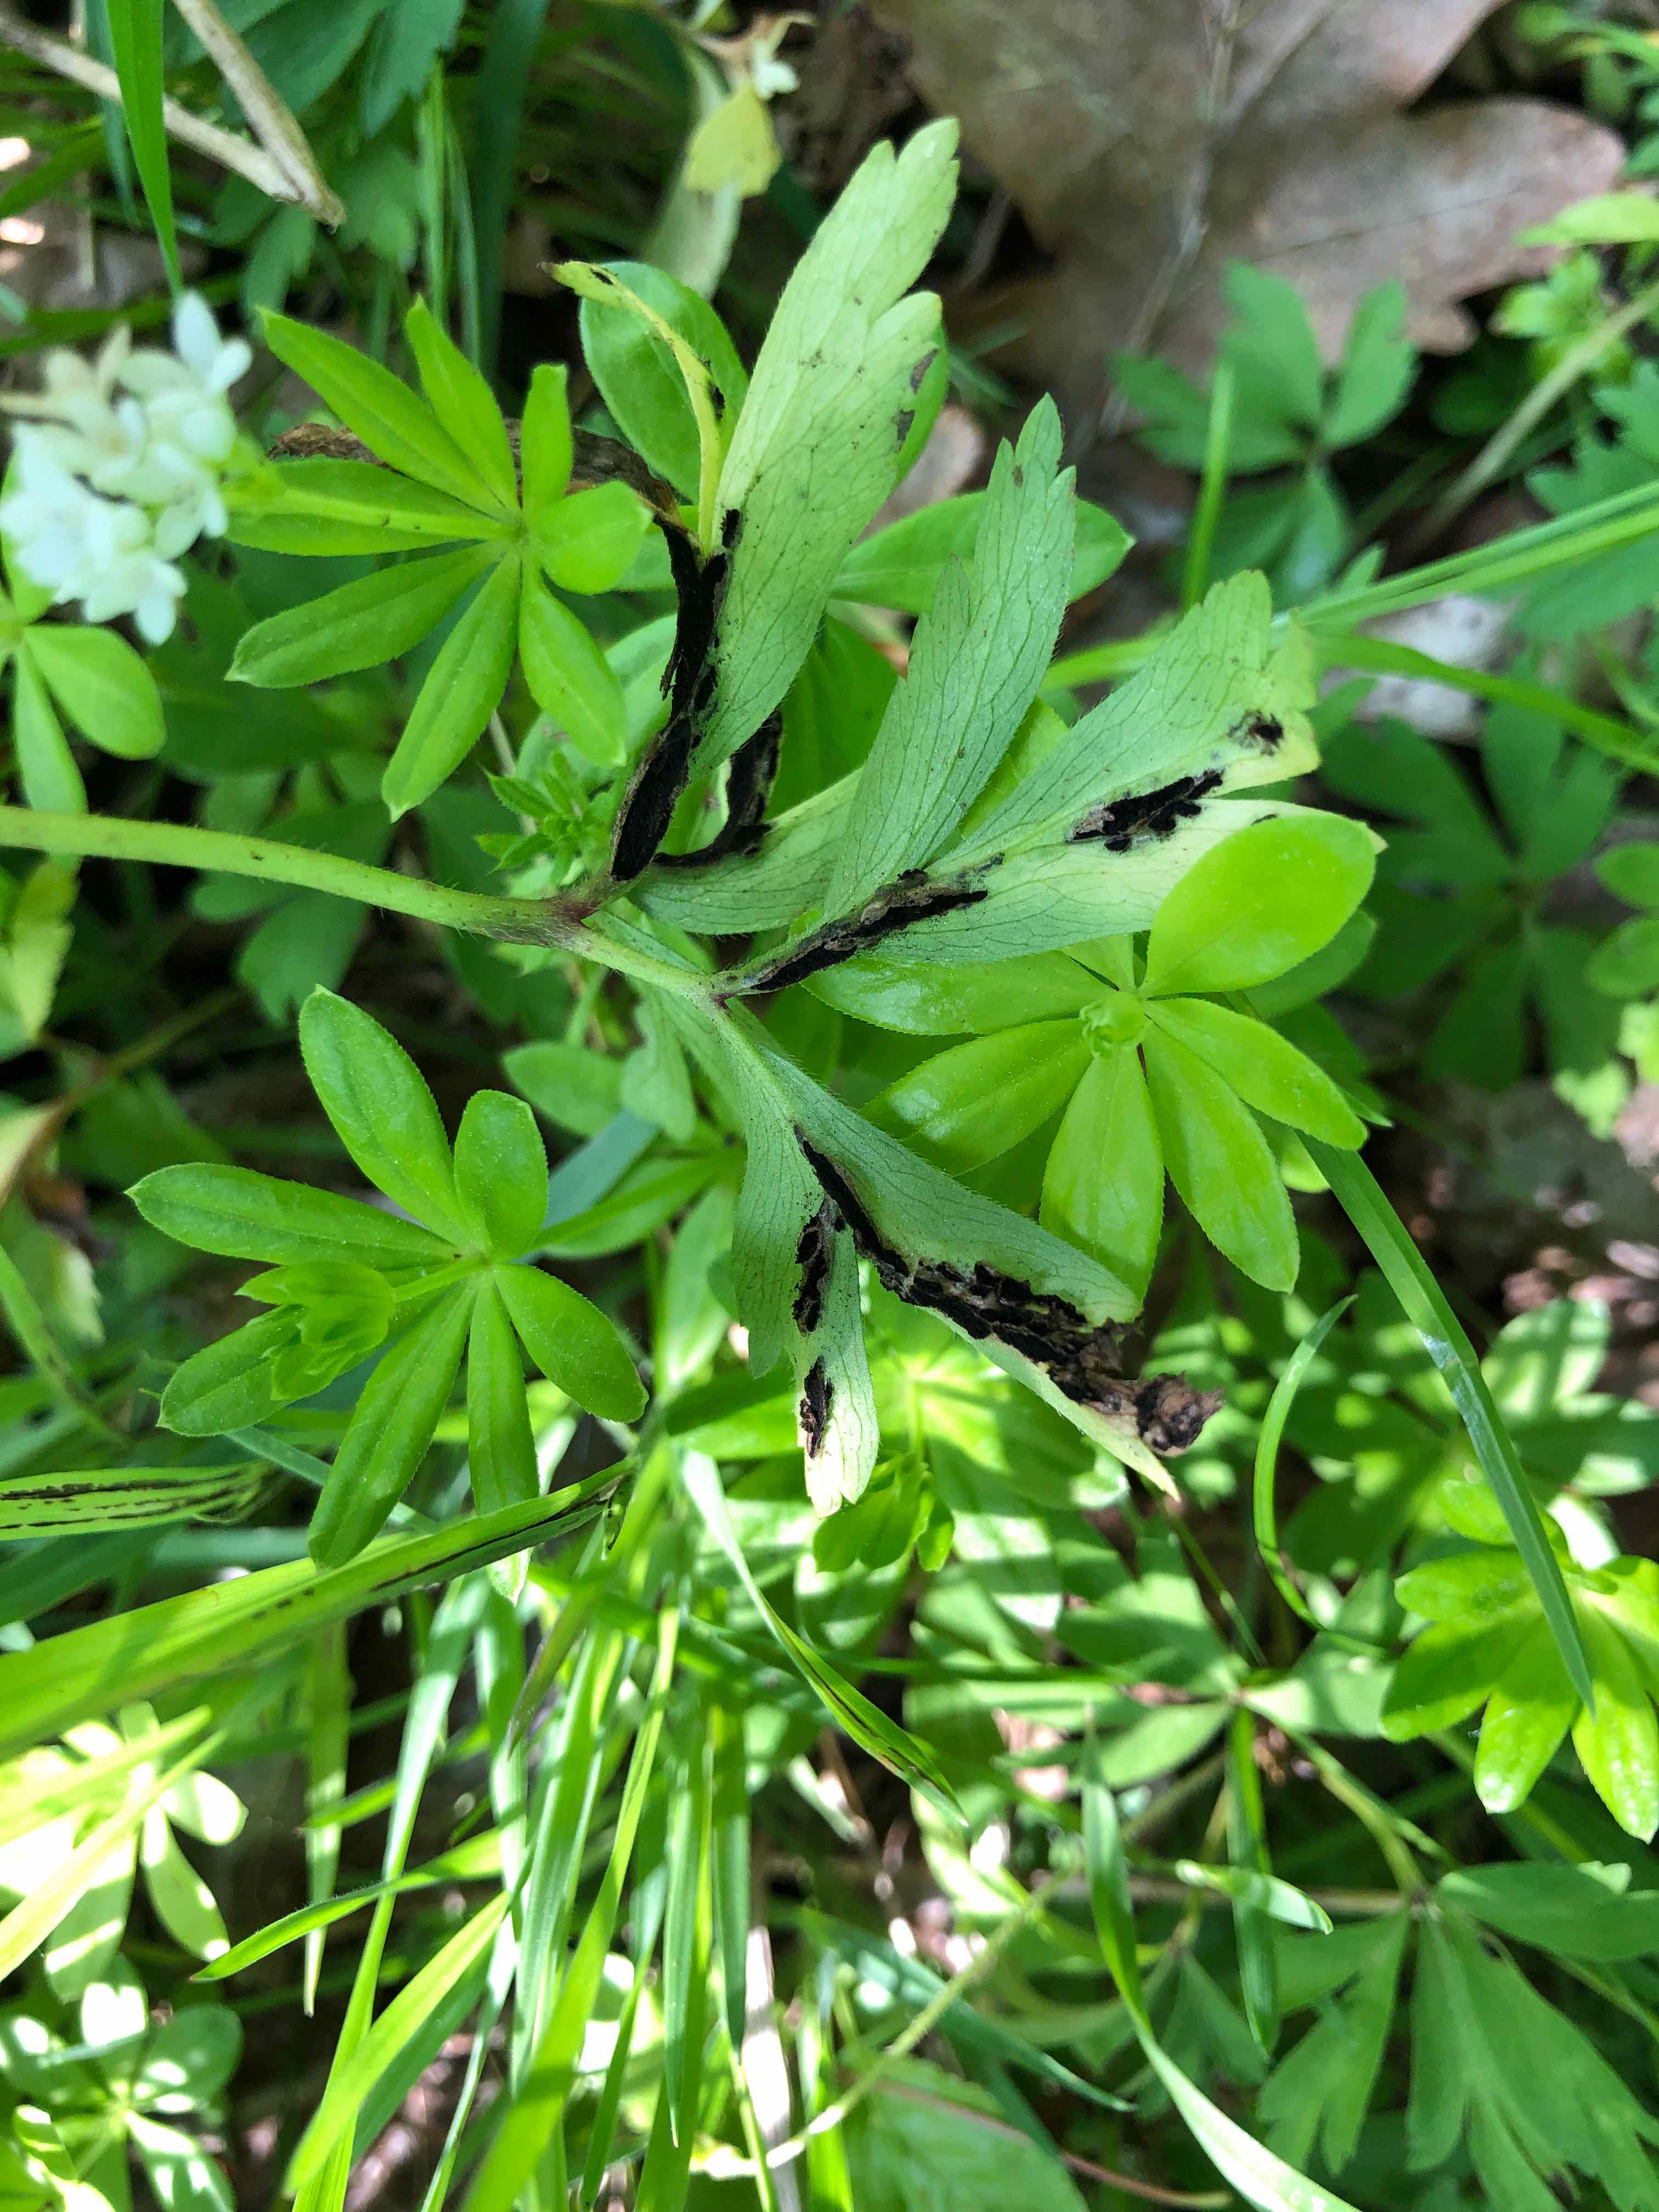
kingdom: Fungi
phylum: Basidiomycota
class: Ustilaginomycetes
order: Urocystidales
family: Urocystidaceae
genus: Urocystis
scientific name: Urocystis anemones
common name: anemone-brand
